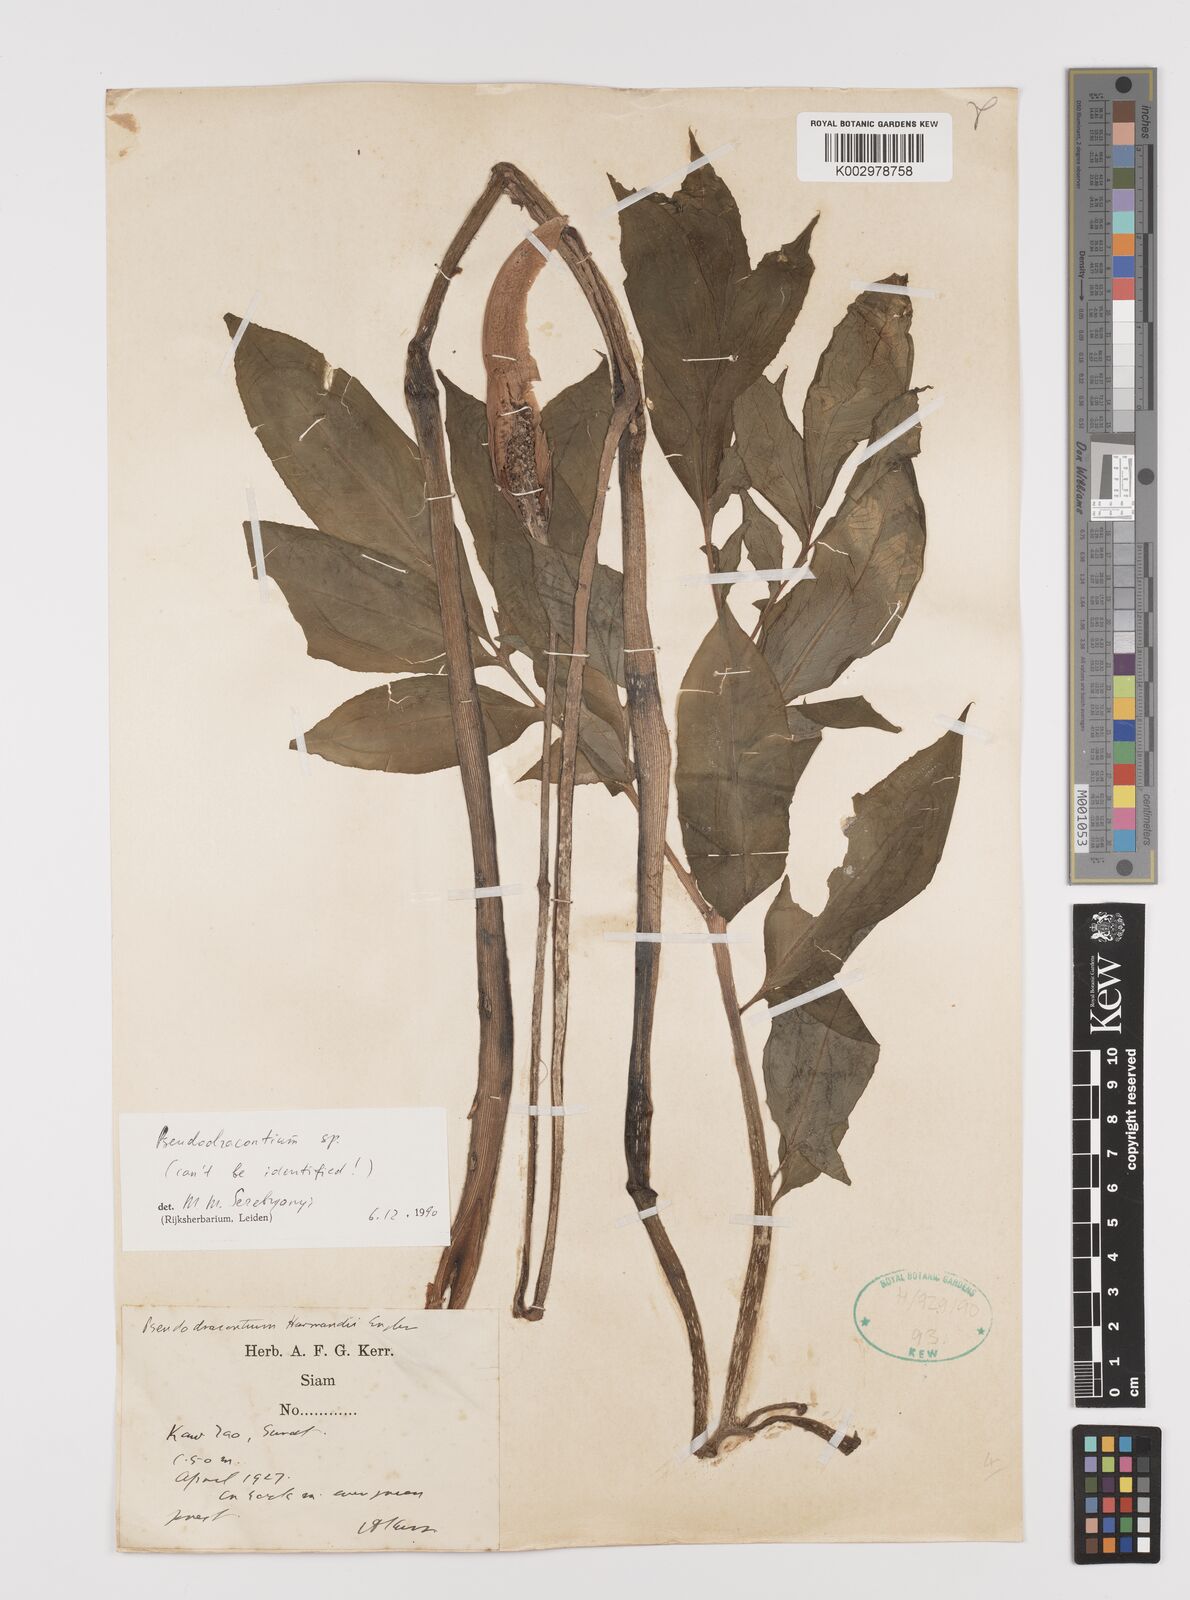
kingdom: Plantae
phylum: Tracheophyta
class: Liliopsida
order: Alismatales
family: Araceae
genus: Amorphophallus
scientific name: Amorphophallus
